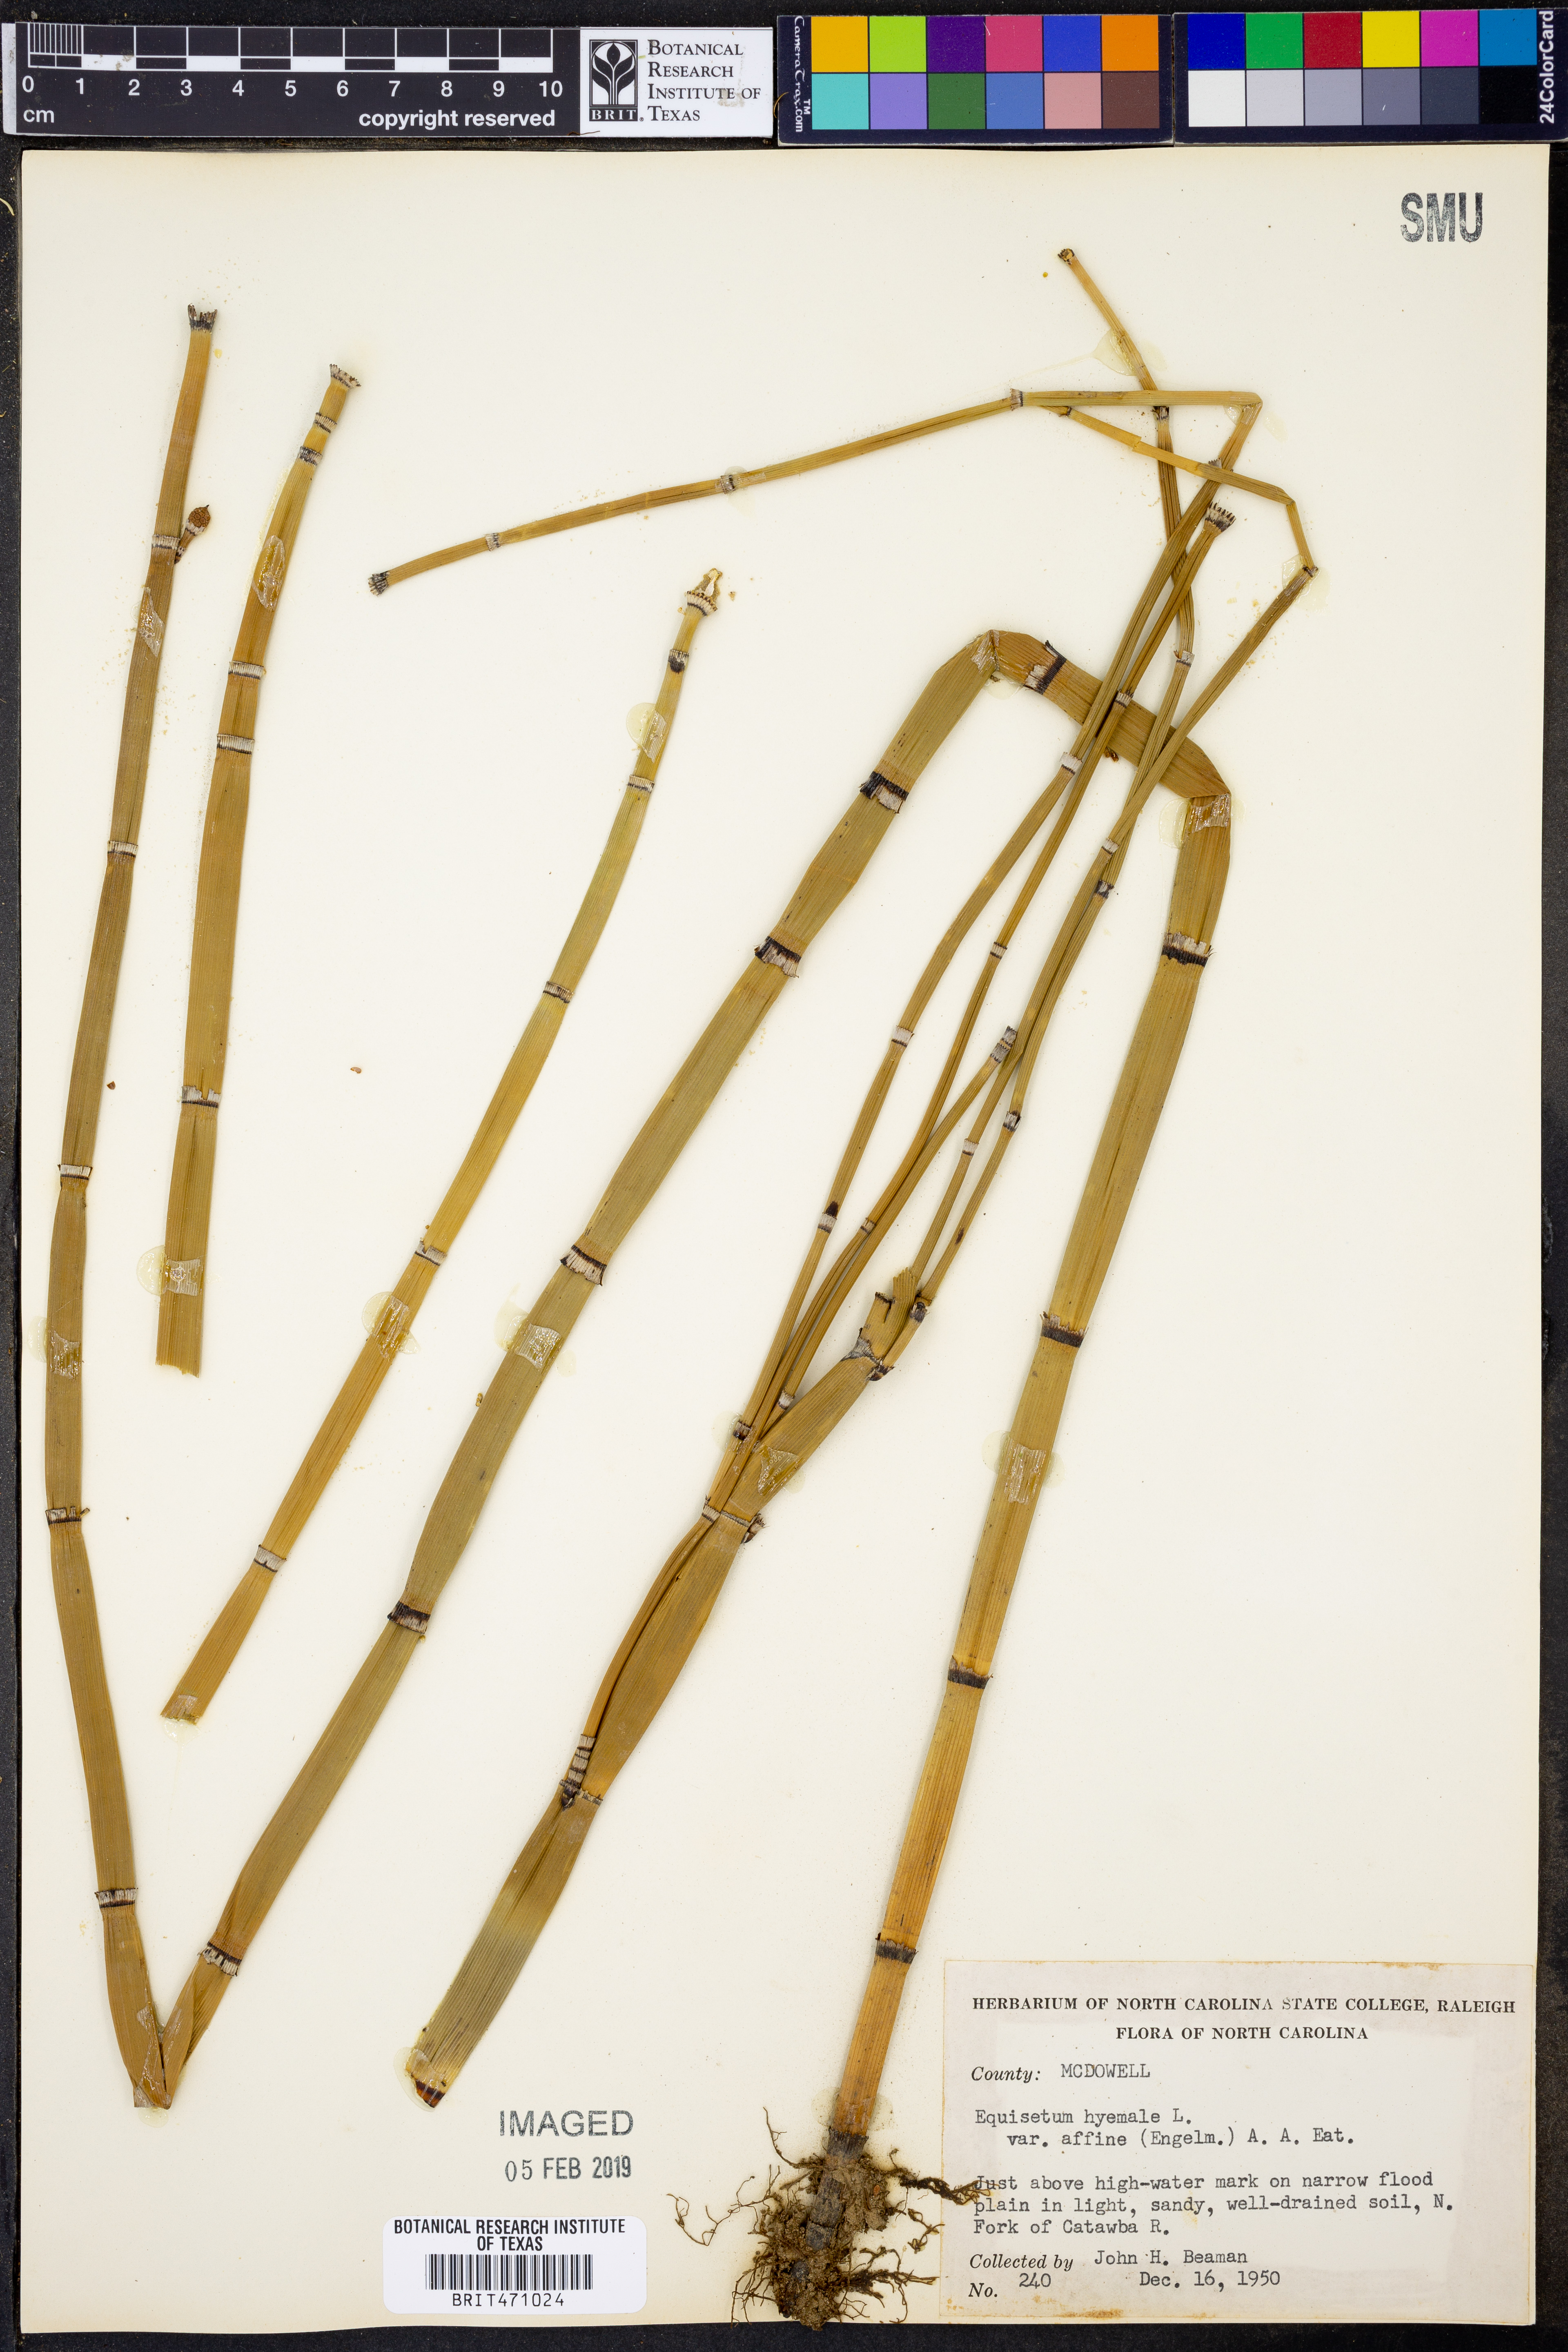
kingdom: Plantae
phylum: Tracheophyta
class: Polypodiopsida
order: Equisetales
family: Equisetaceae
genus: Equisetum
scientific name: Equisetum praealtum
